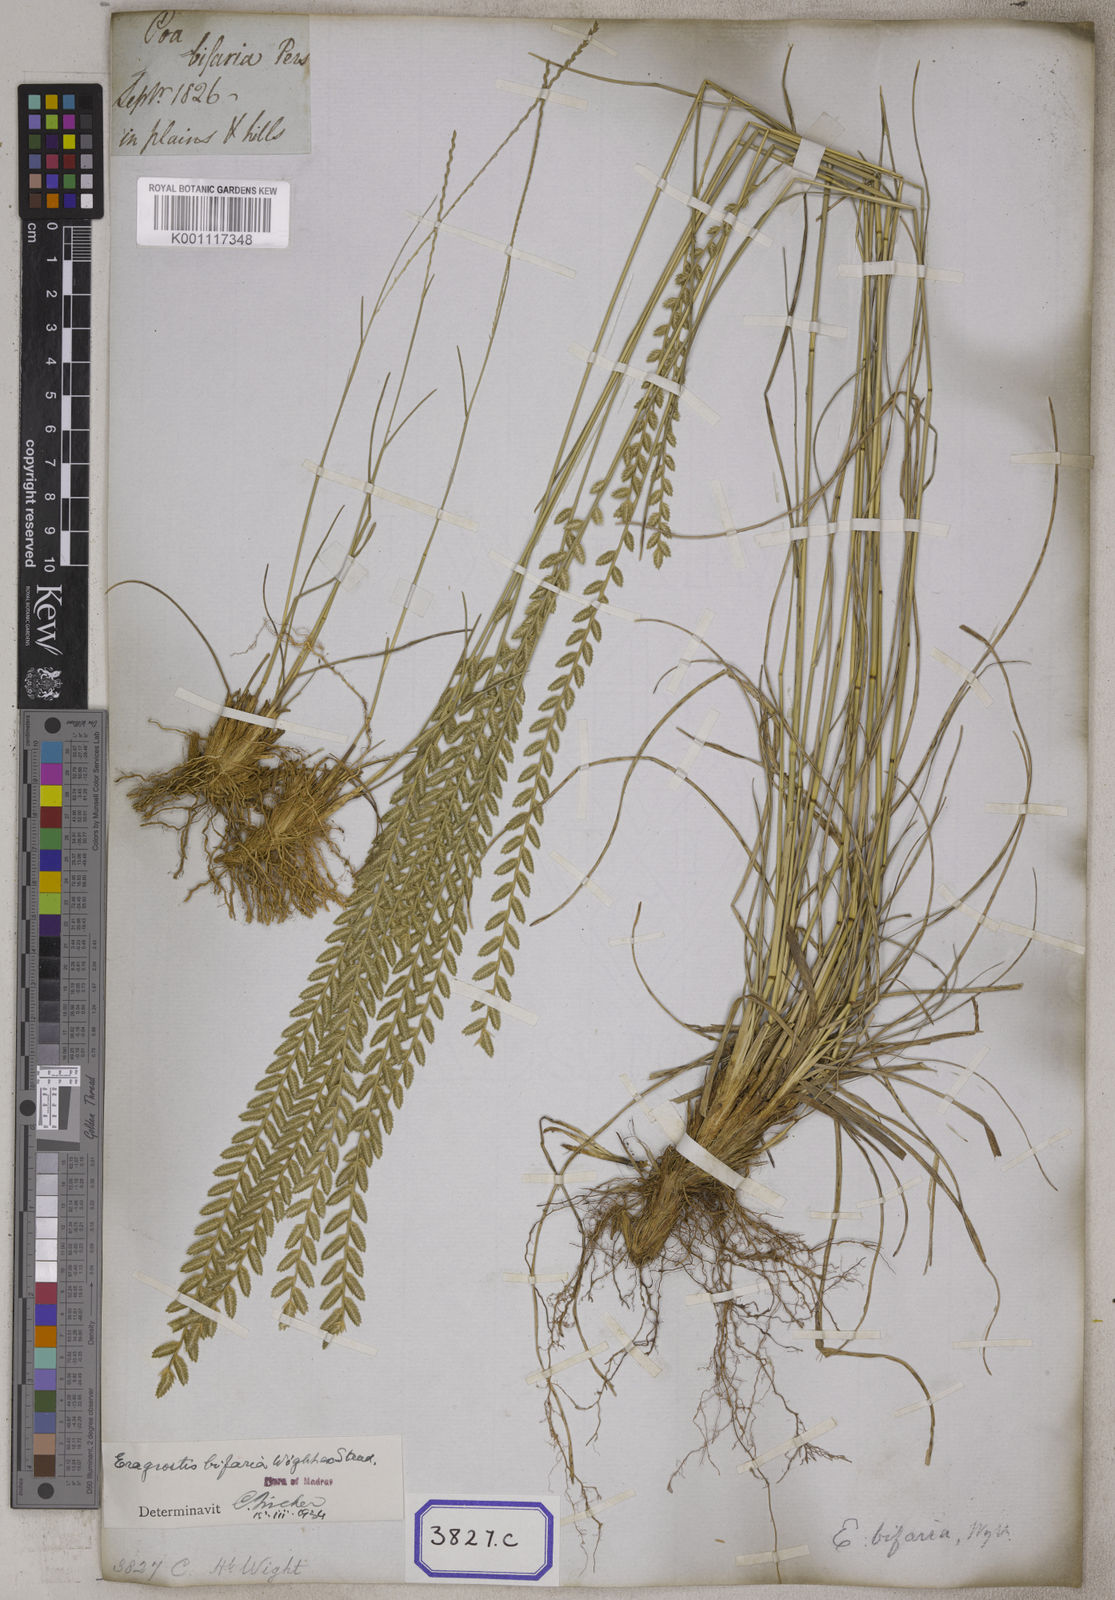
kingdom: Plantae
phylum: Tracheophyta
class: Liliopsida
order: Poales
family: Poaceae
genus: Eragrostis
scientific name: Eragrostis
